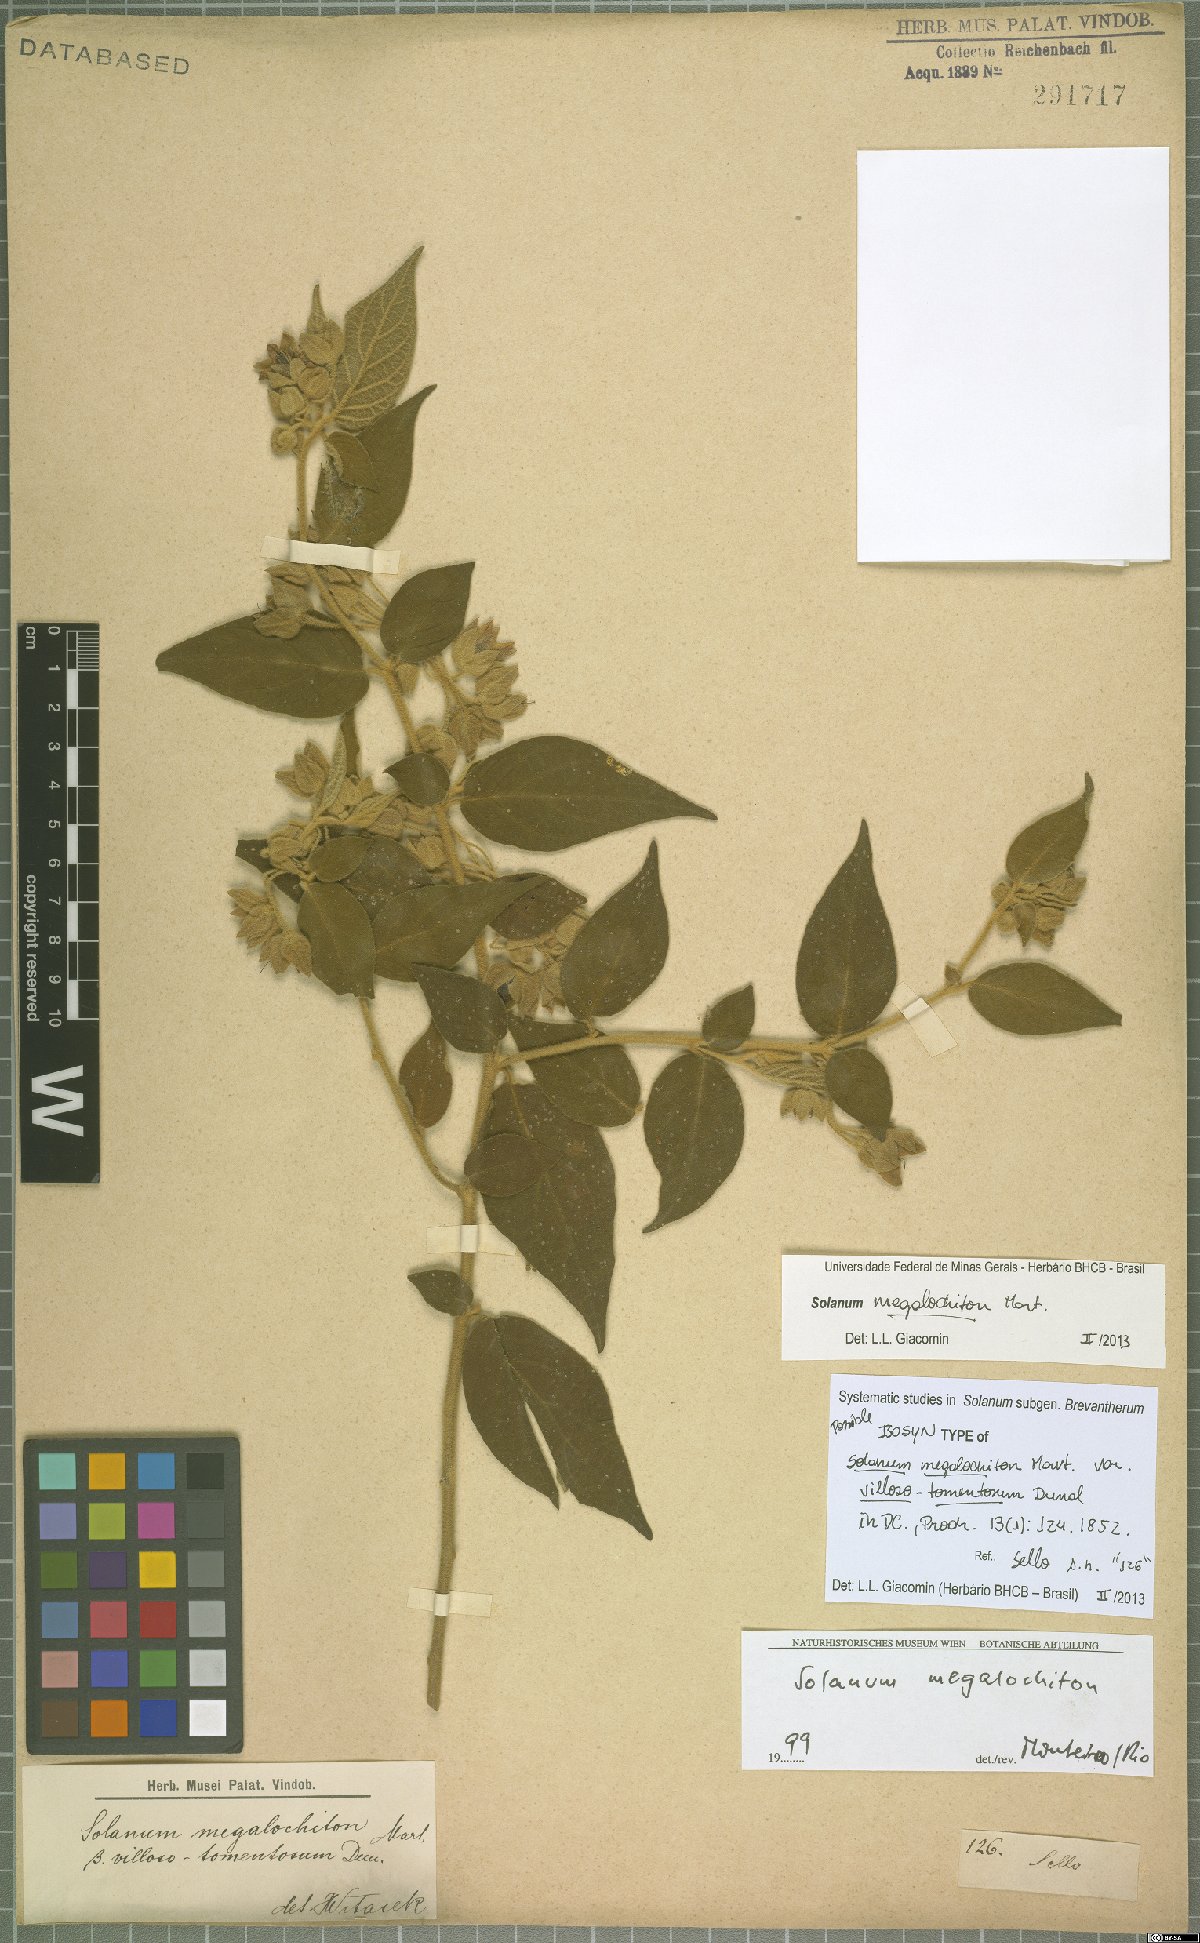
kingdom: Plantae
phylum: Tracheophyta
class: Magnoliopsida
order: Solanales
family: Solanaceae
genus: Solanum
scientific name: Solanum megalochiton
